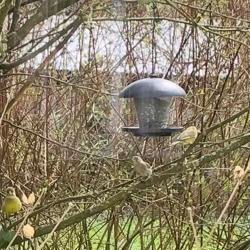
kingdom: Plantae
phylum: Tracheophyta
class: Liliopsida
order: Poales
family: Poaceae
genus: Chloris
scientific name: Chloris chloris
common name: Grønirisk
